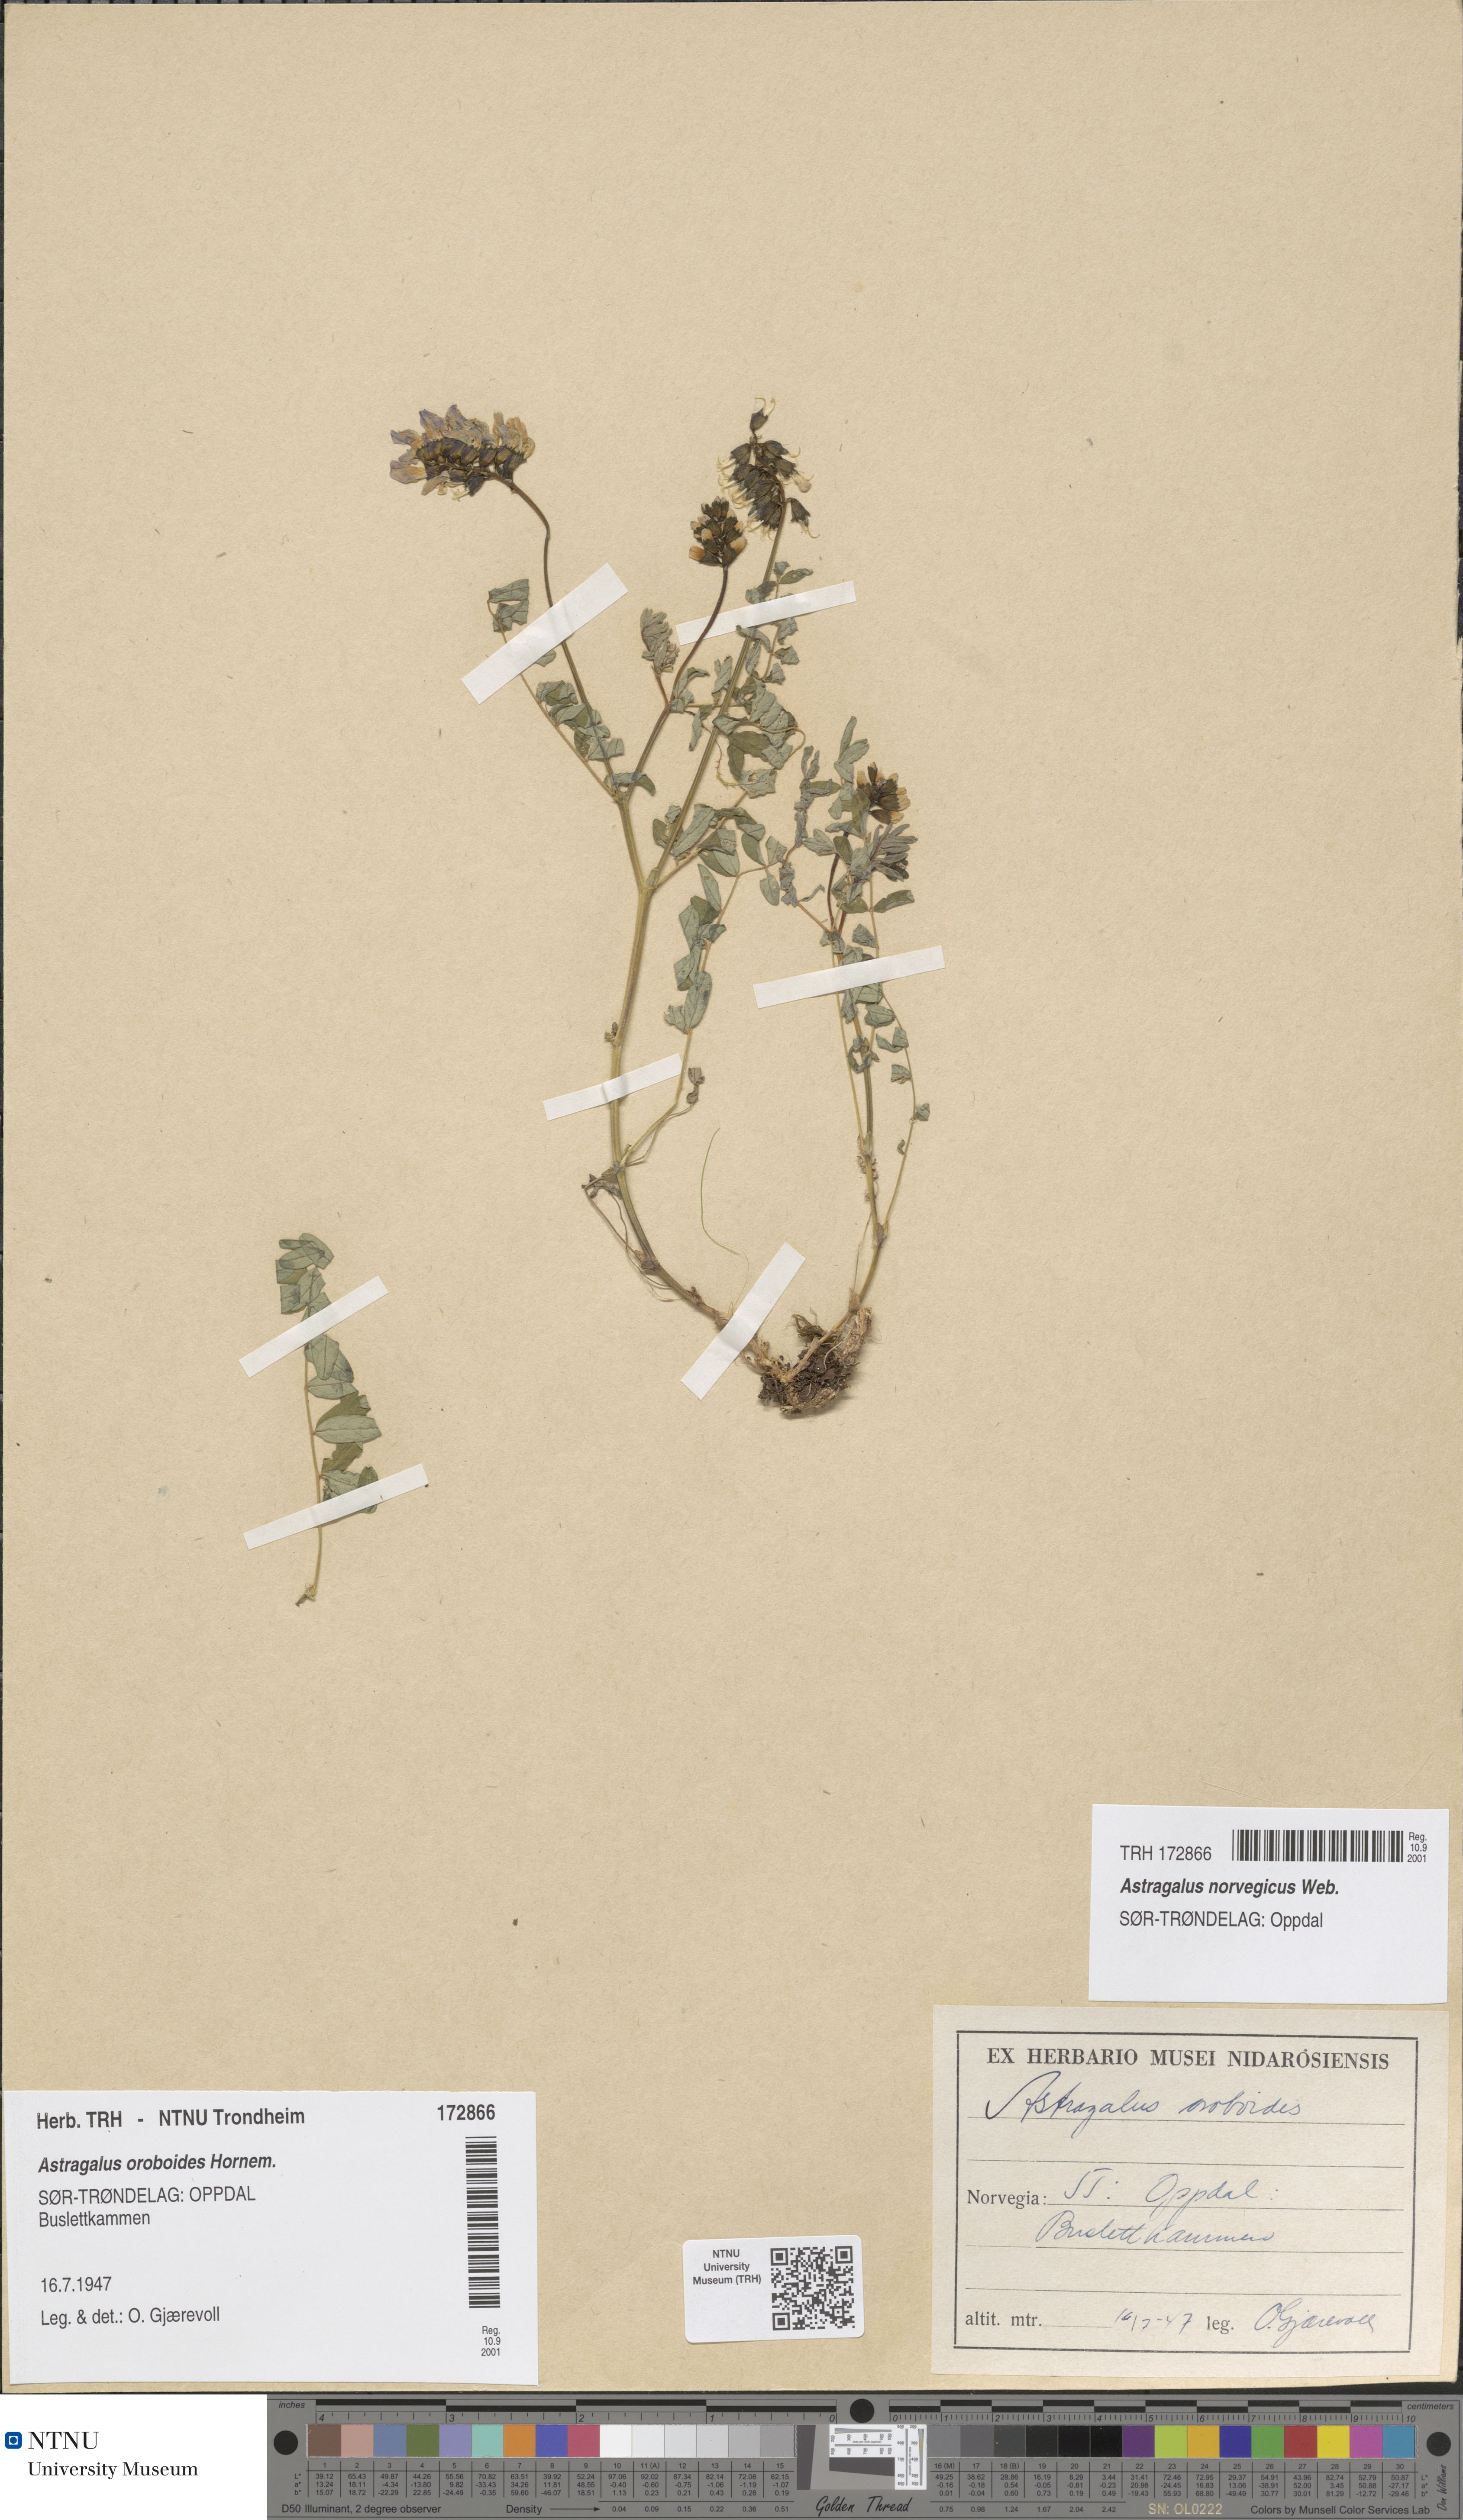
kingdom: Plantae
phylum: Tracheophyta
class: Magnoliopsida
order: Fabales
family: Fabaceae
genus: Astragalus
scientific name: Astragalus norvegicus
